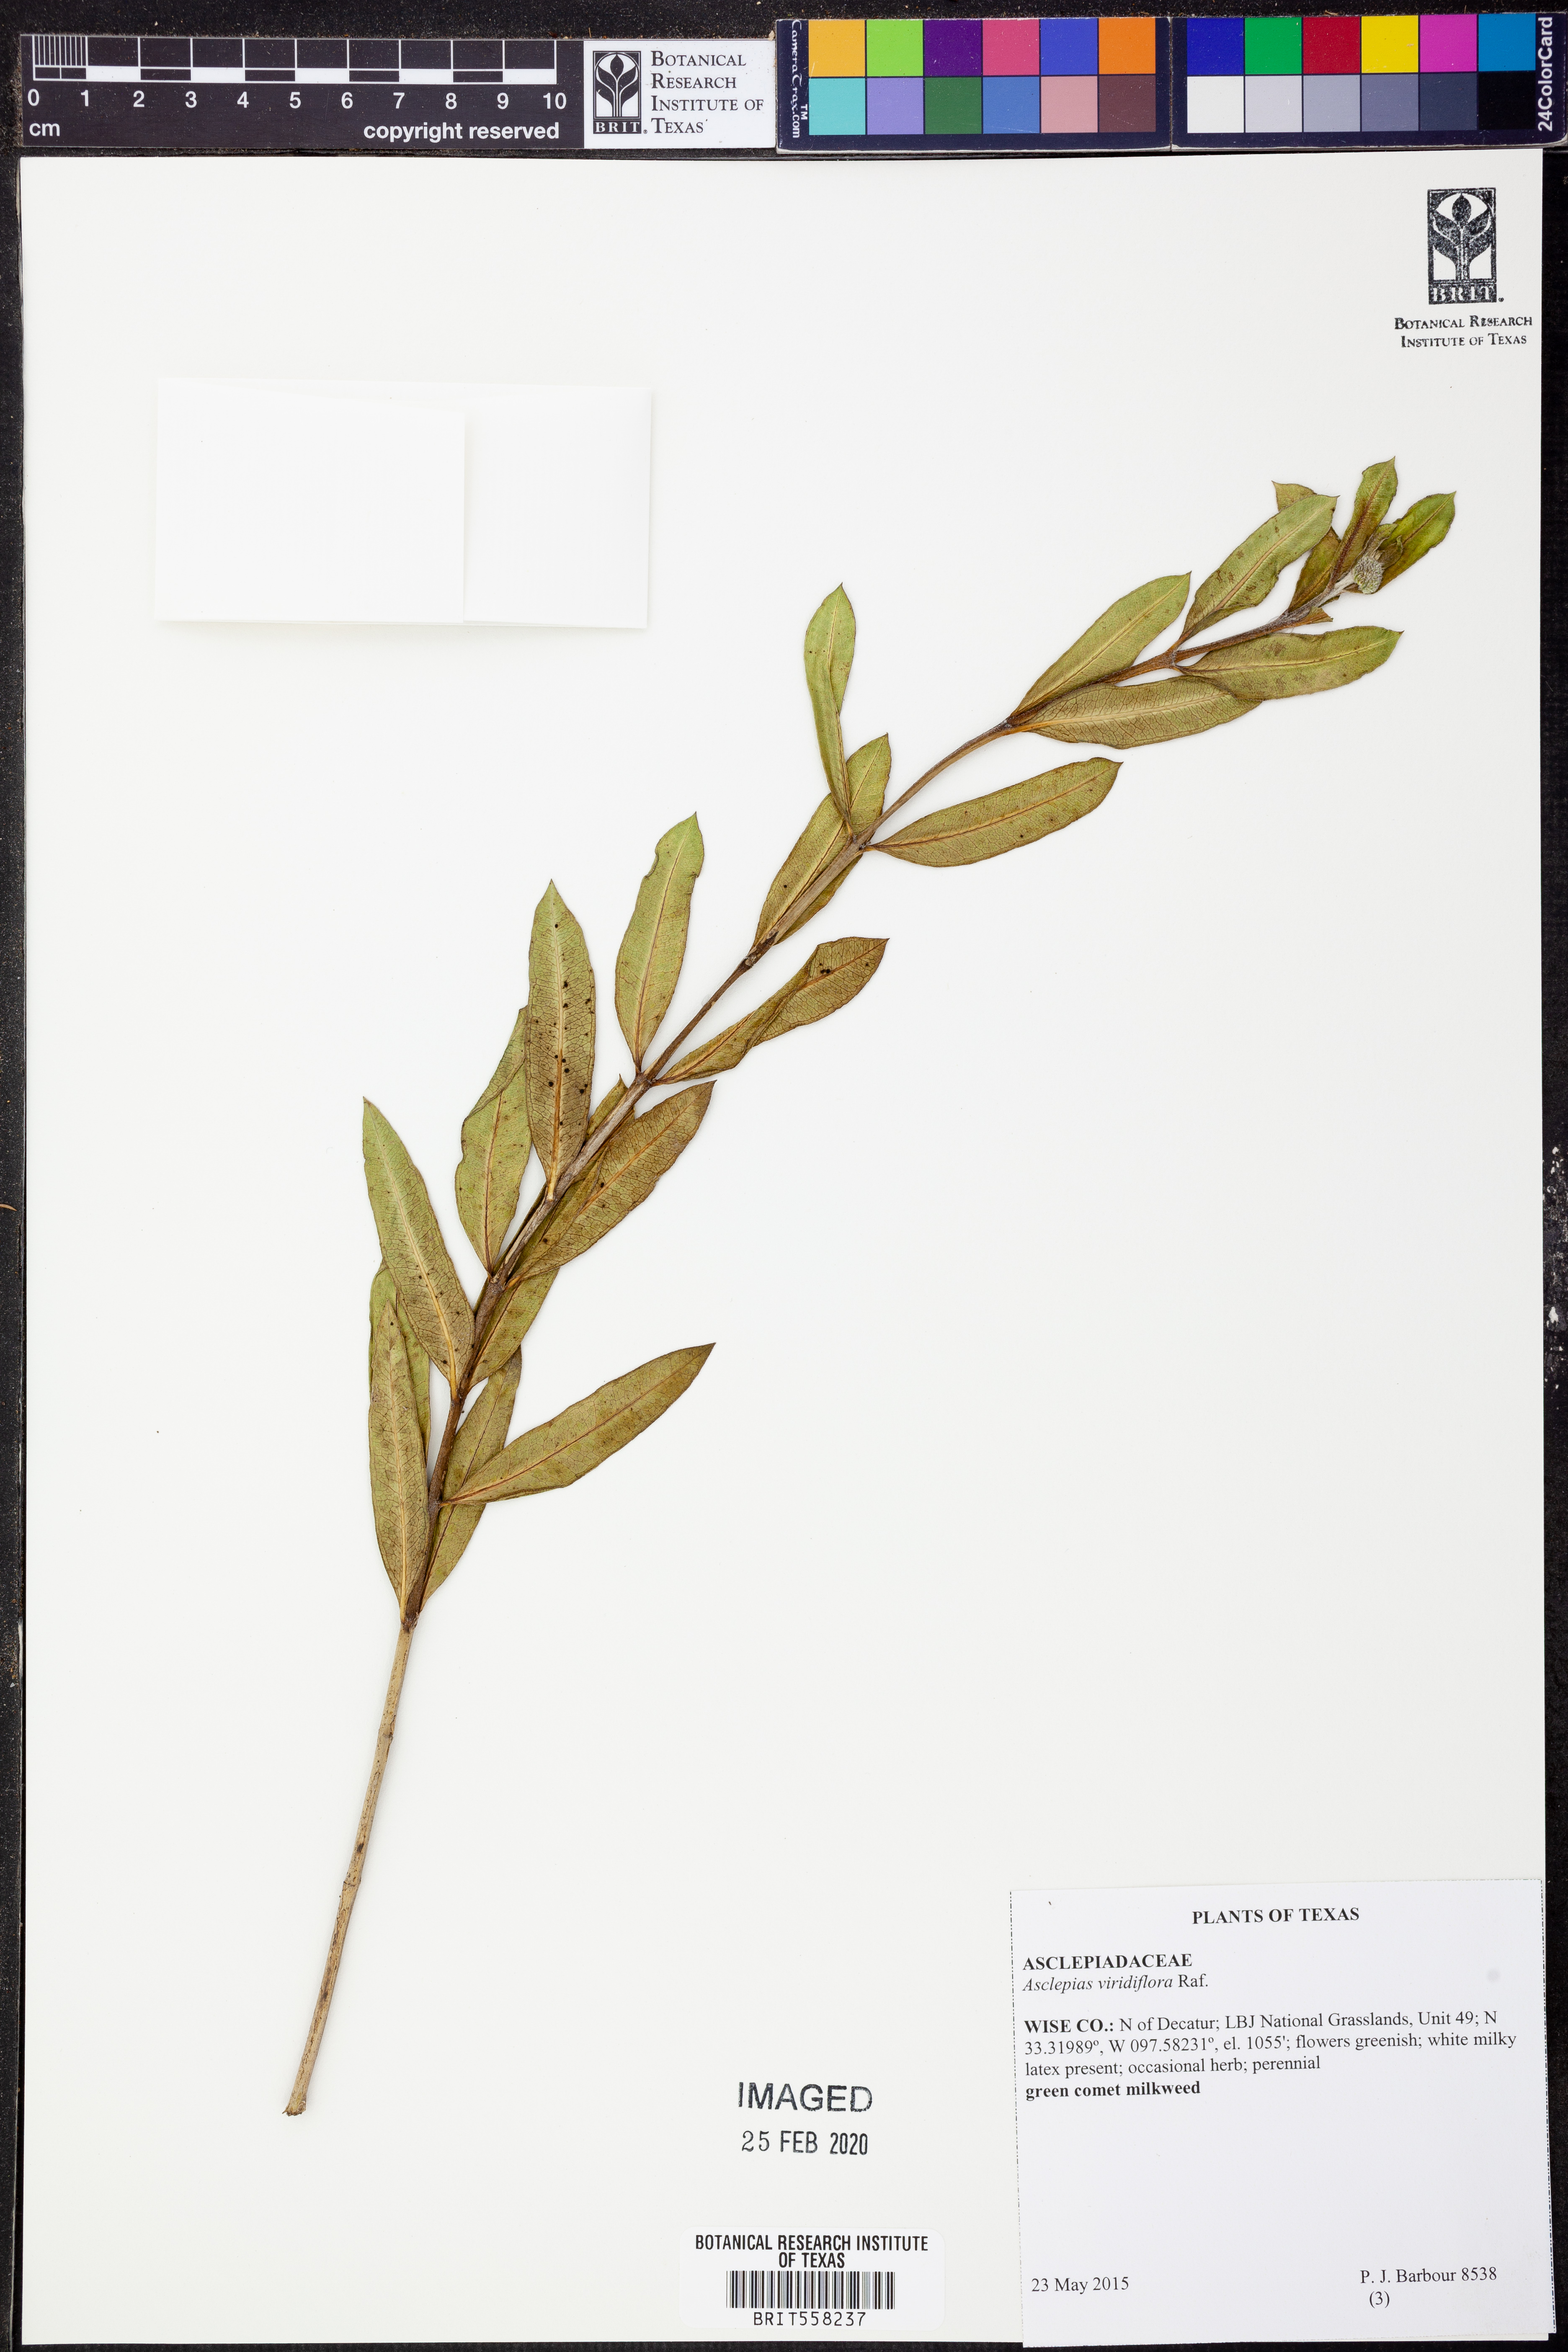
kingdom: Plantae
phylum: Tracheophyta
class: Magnoliopsida
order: Gentianales
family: Apocynaceae
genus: Asclepias
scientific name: Asclepias viridiflora
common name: Green comet milkweed
